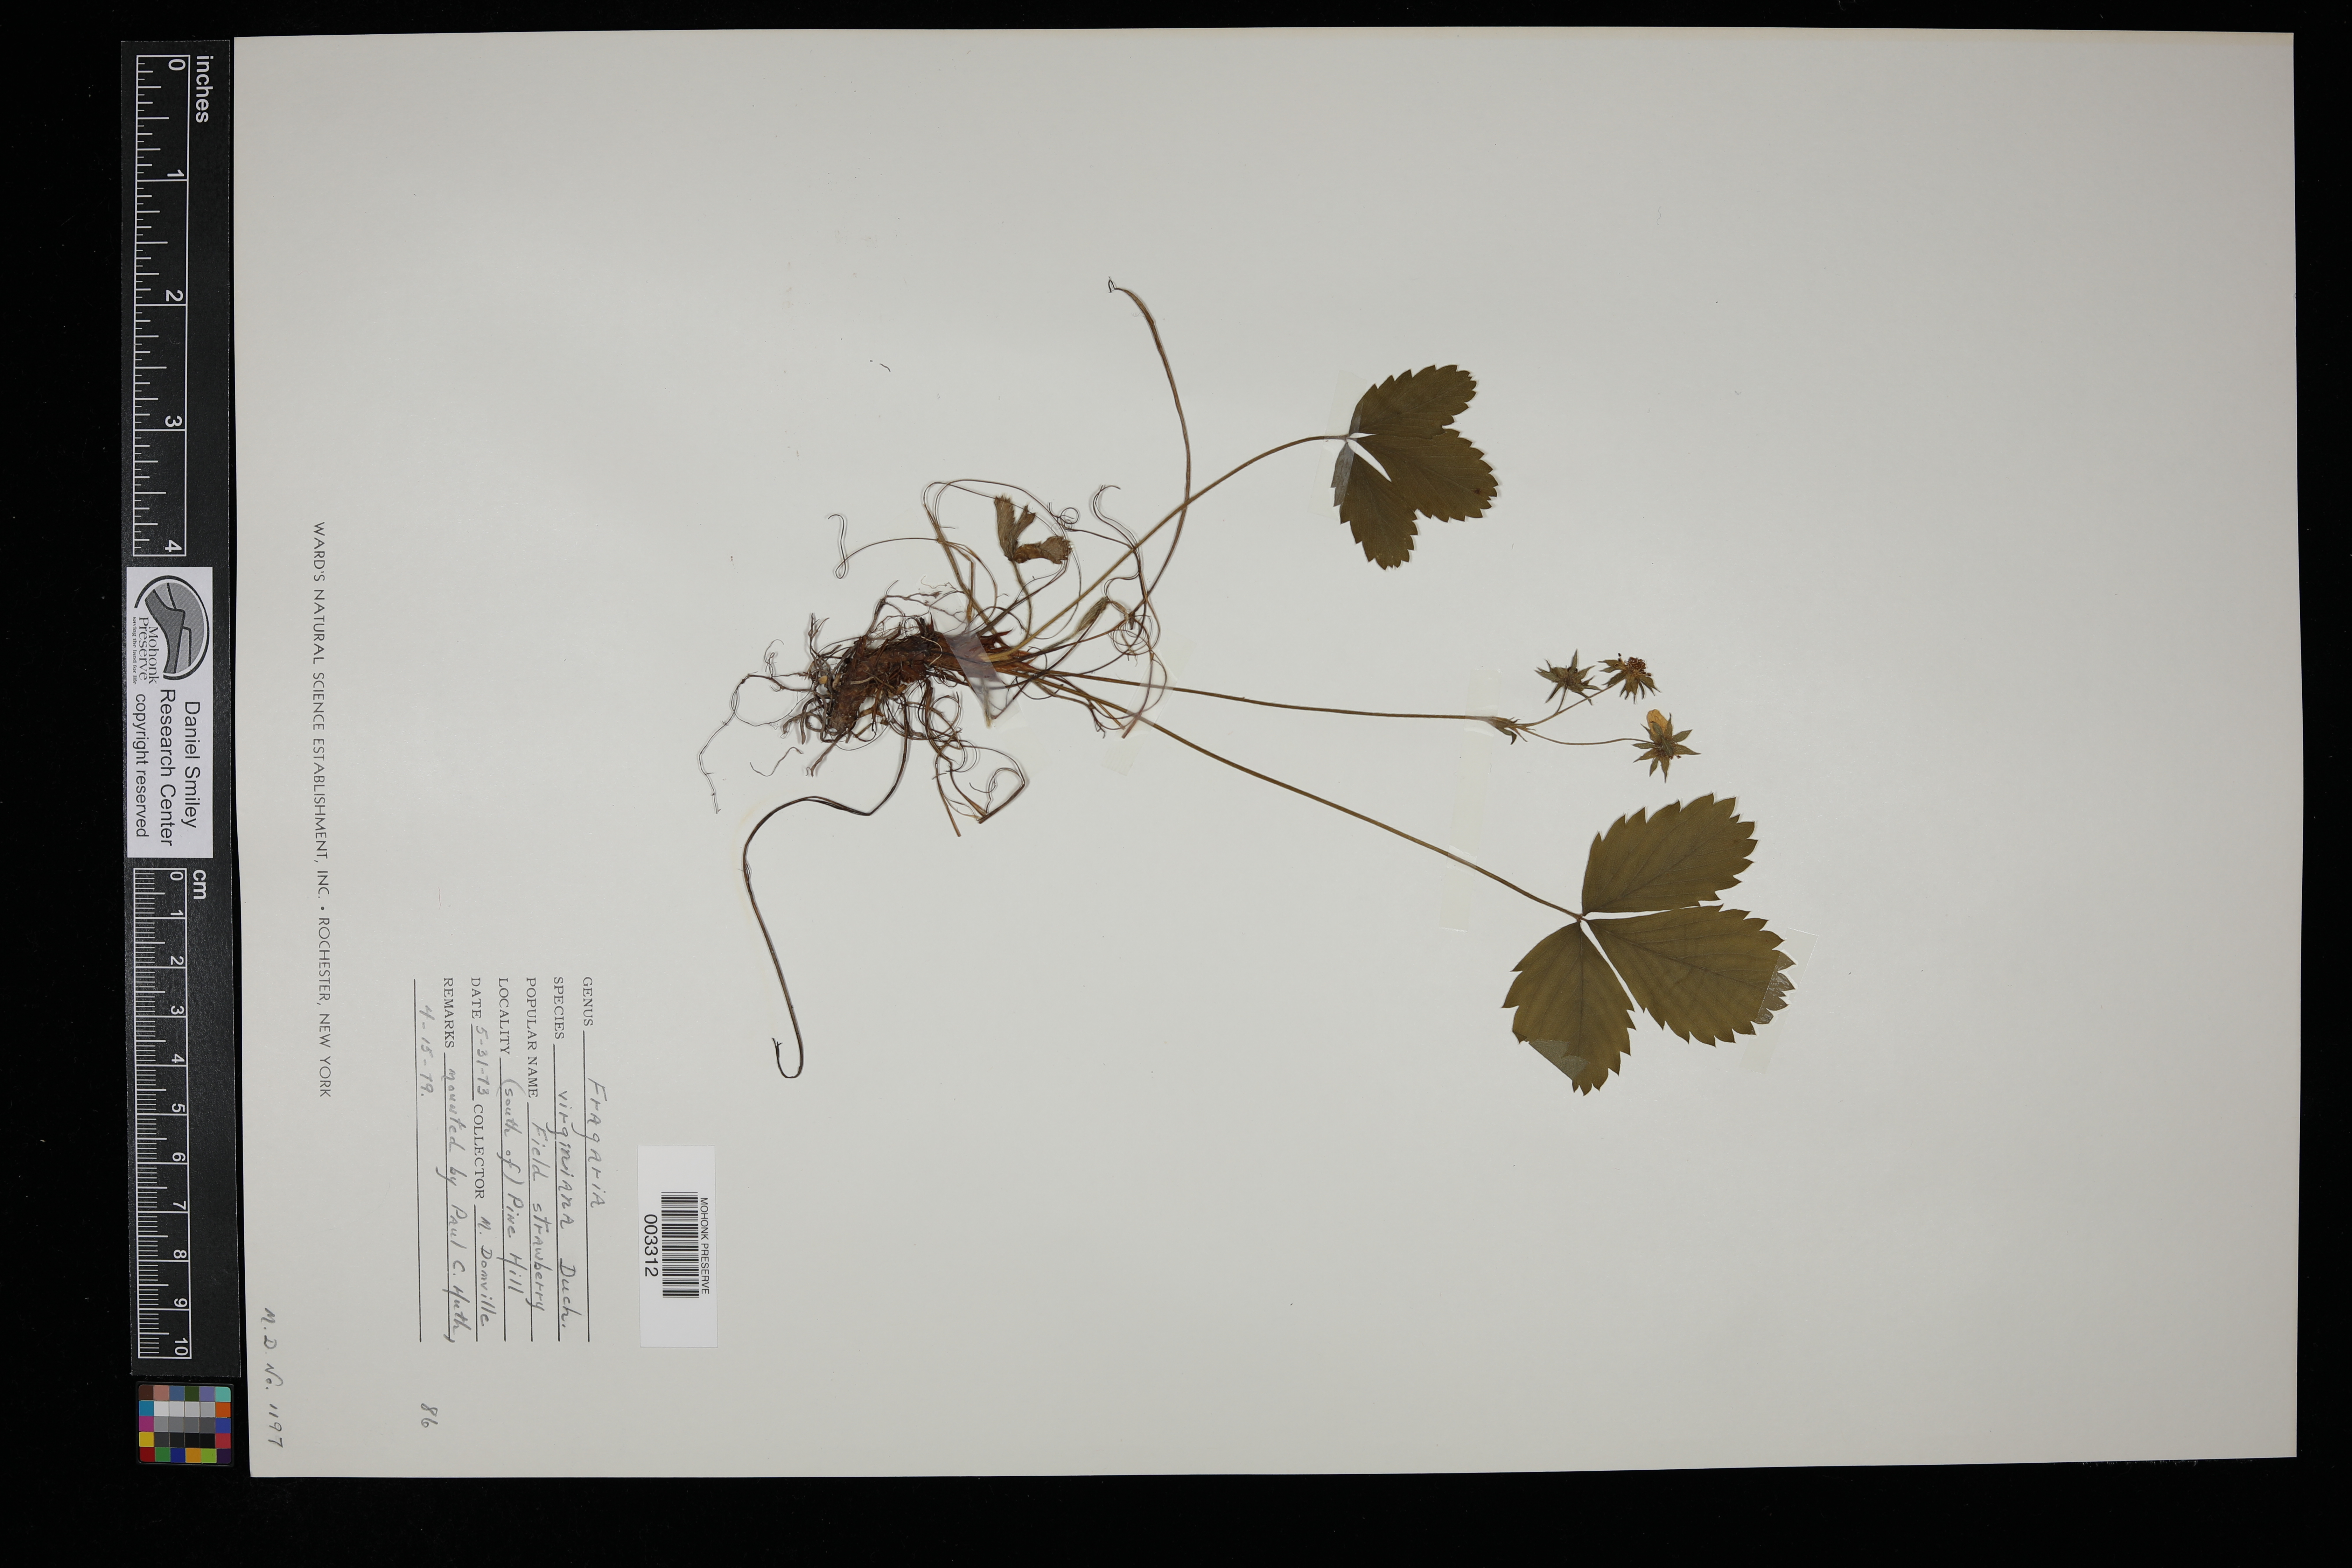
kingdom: Plantae
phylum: Tracheophyta
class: Magnoliopsida
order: Rosales
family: Rosaceae
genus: Fragaria
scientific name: Fragaria virginiana
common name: Thickleaved wild strawberry
